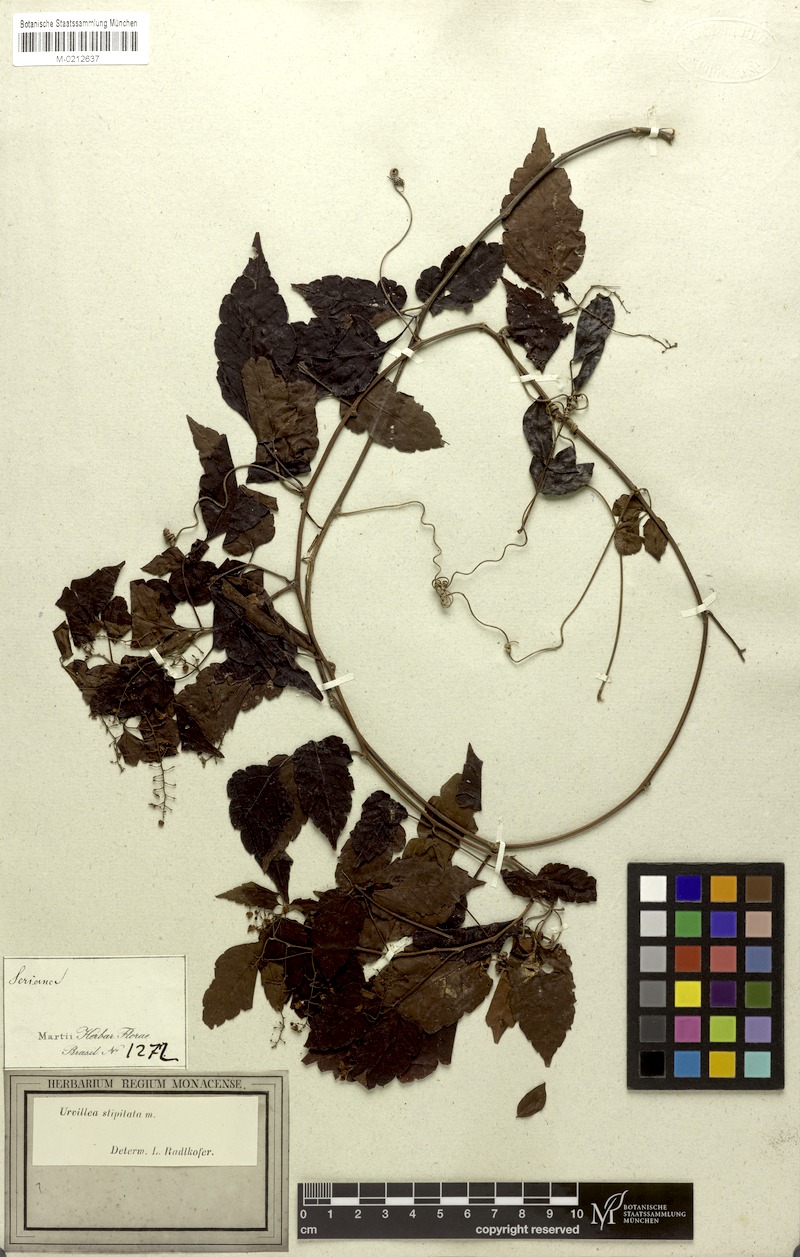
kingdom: Plantae
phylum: Tracheophyta
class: Magnoliopsida
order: Sapindales
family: Sapindaceae
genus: Urvillea
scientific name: Urvillea stipitata
